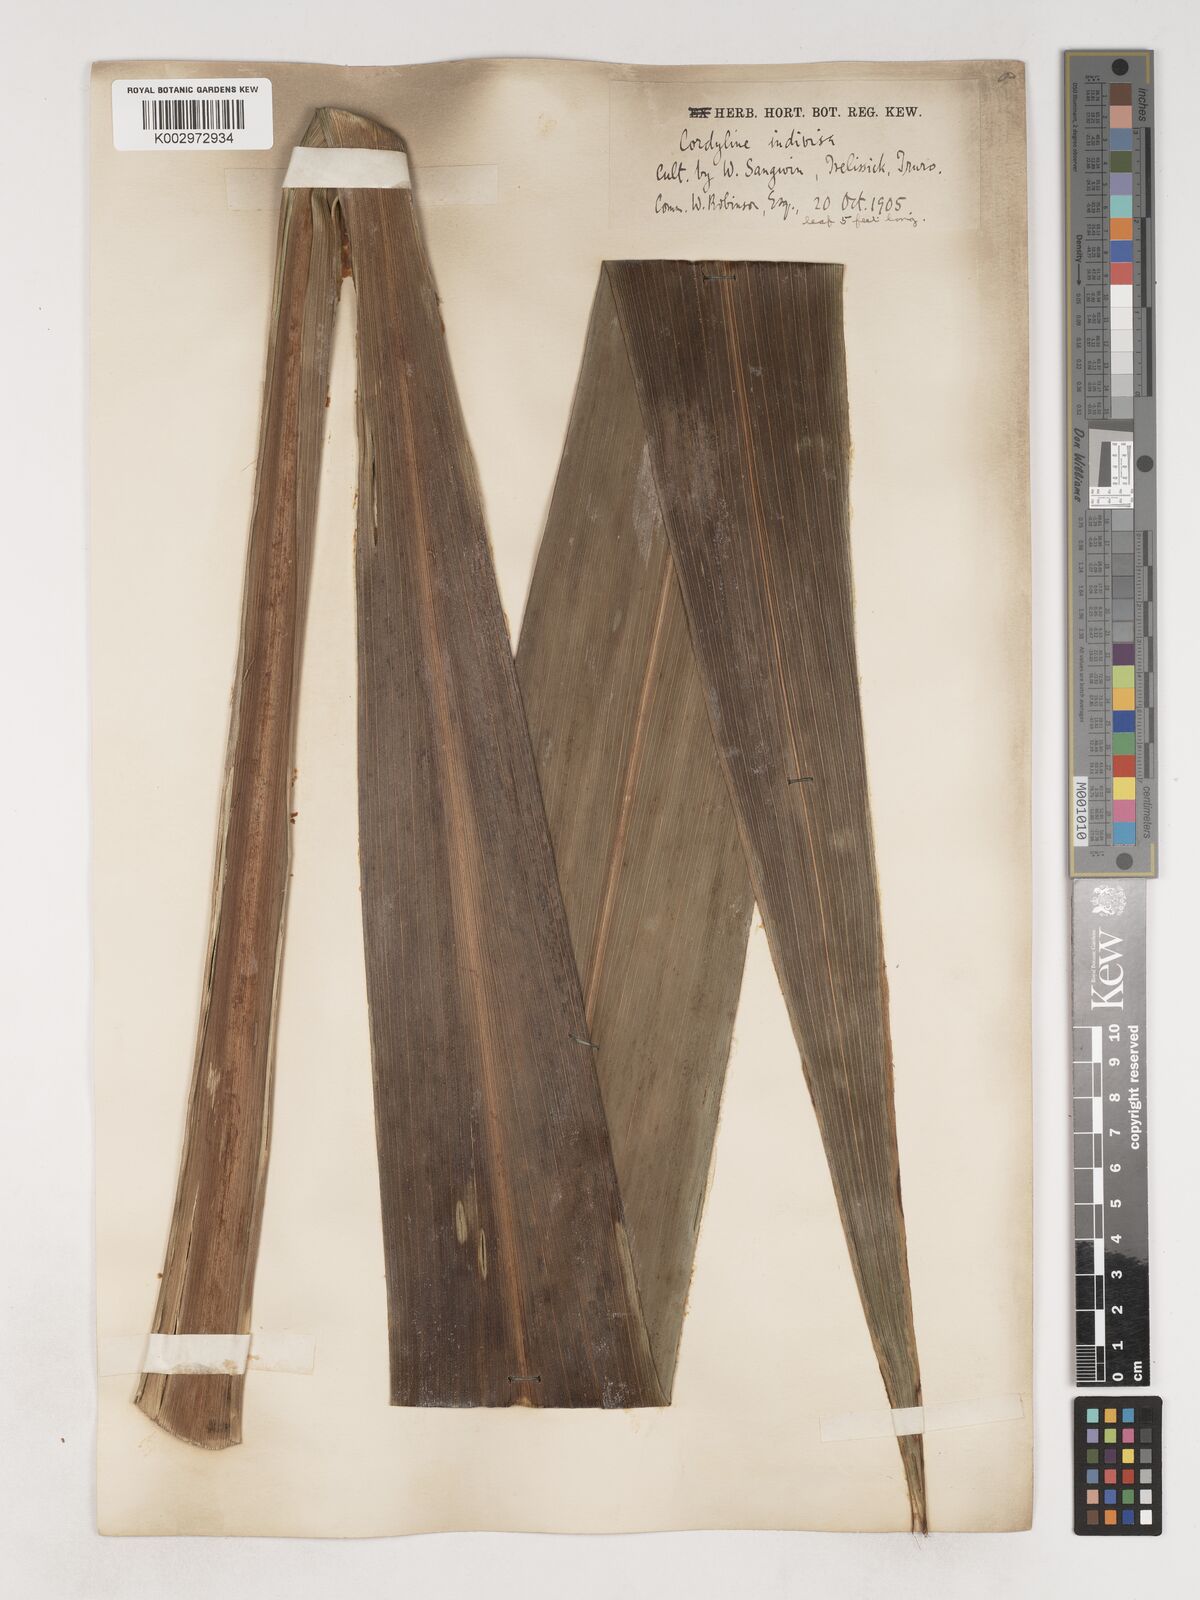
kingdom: Plantae
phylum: Tracheophyta
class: Liliopsida
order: Asparagales
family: Asparagaceae
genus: Cordyline
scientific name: Cordyline australis
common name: Cabbage-palm
